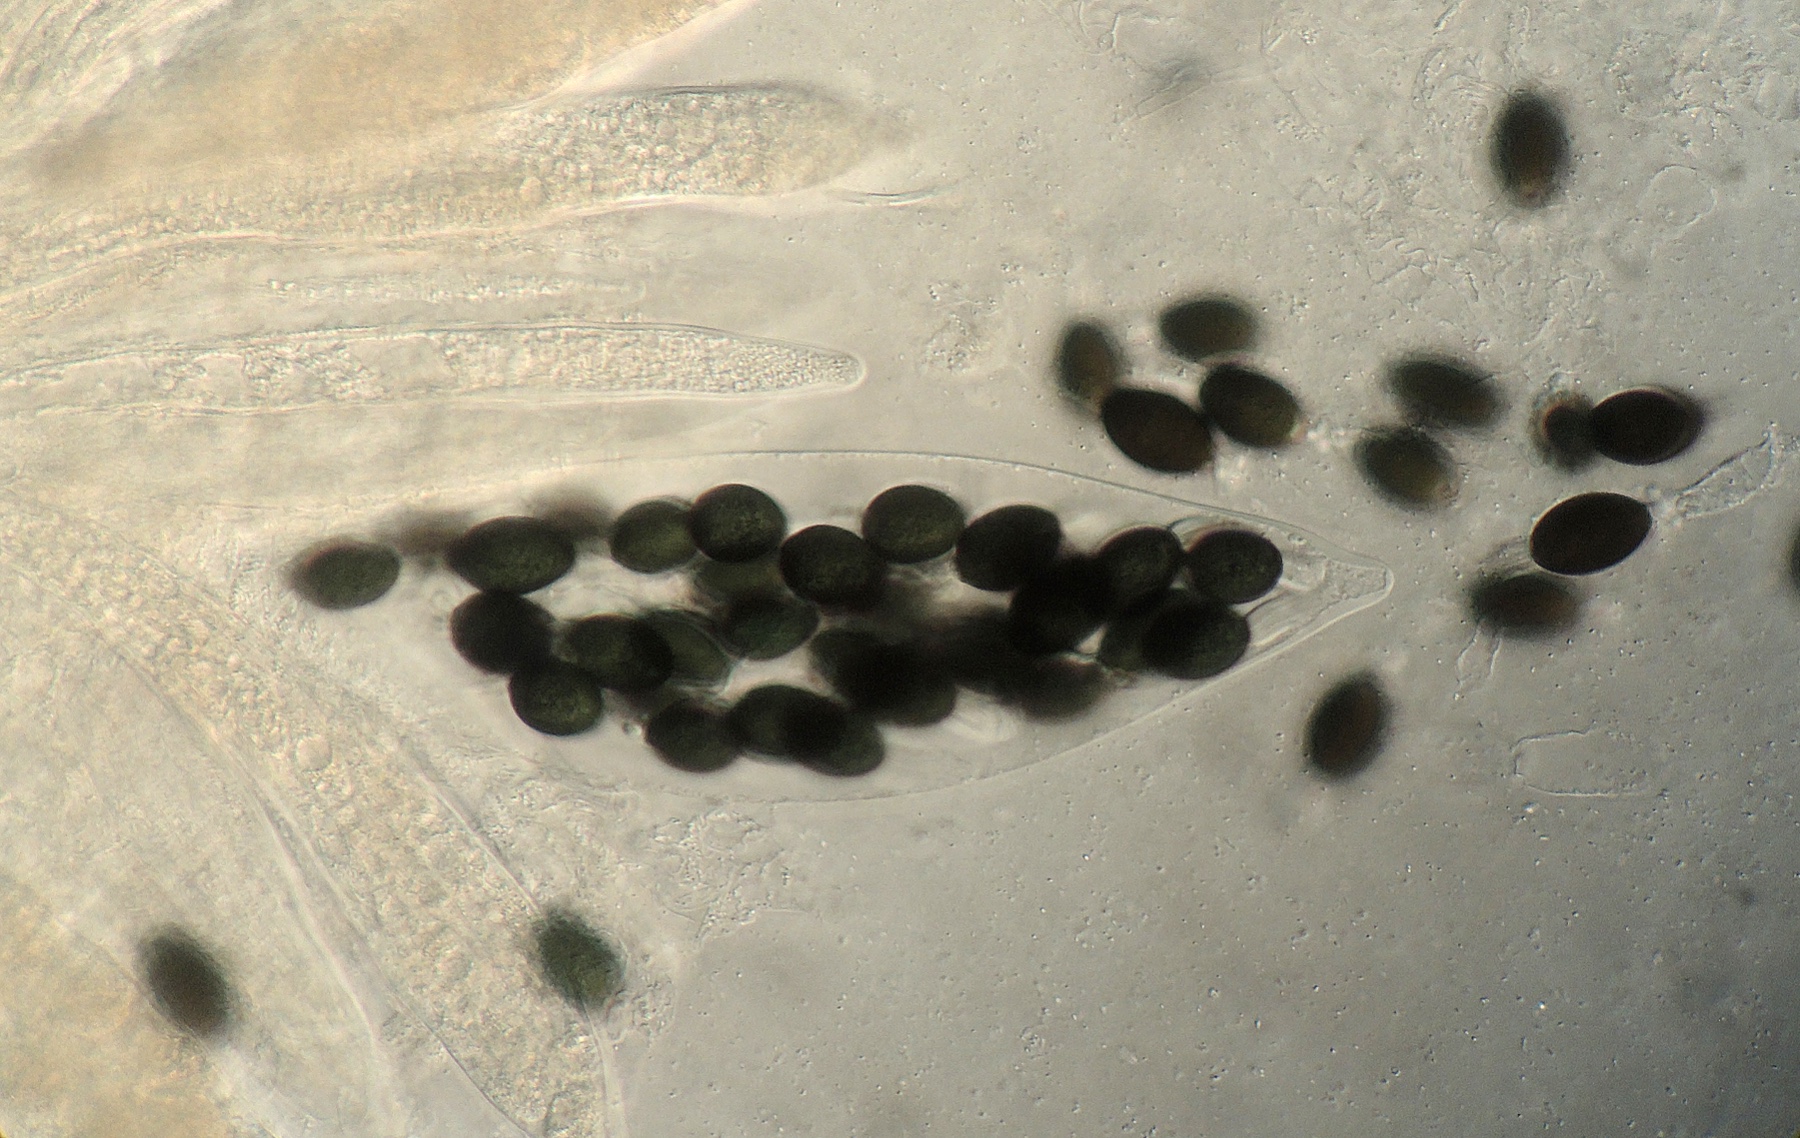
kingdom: Fungi
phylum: Ascomycota
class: Sordariomycetes
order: Sordariales
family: Naviculisporaceae
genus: Rhypophila
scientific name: Rhypophila pleiospora
